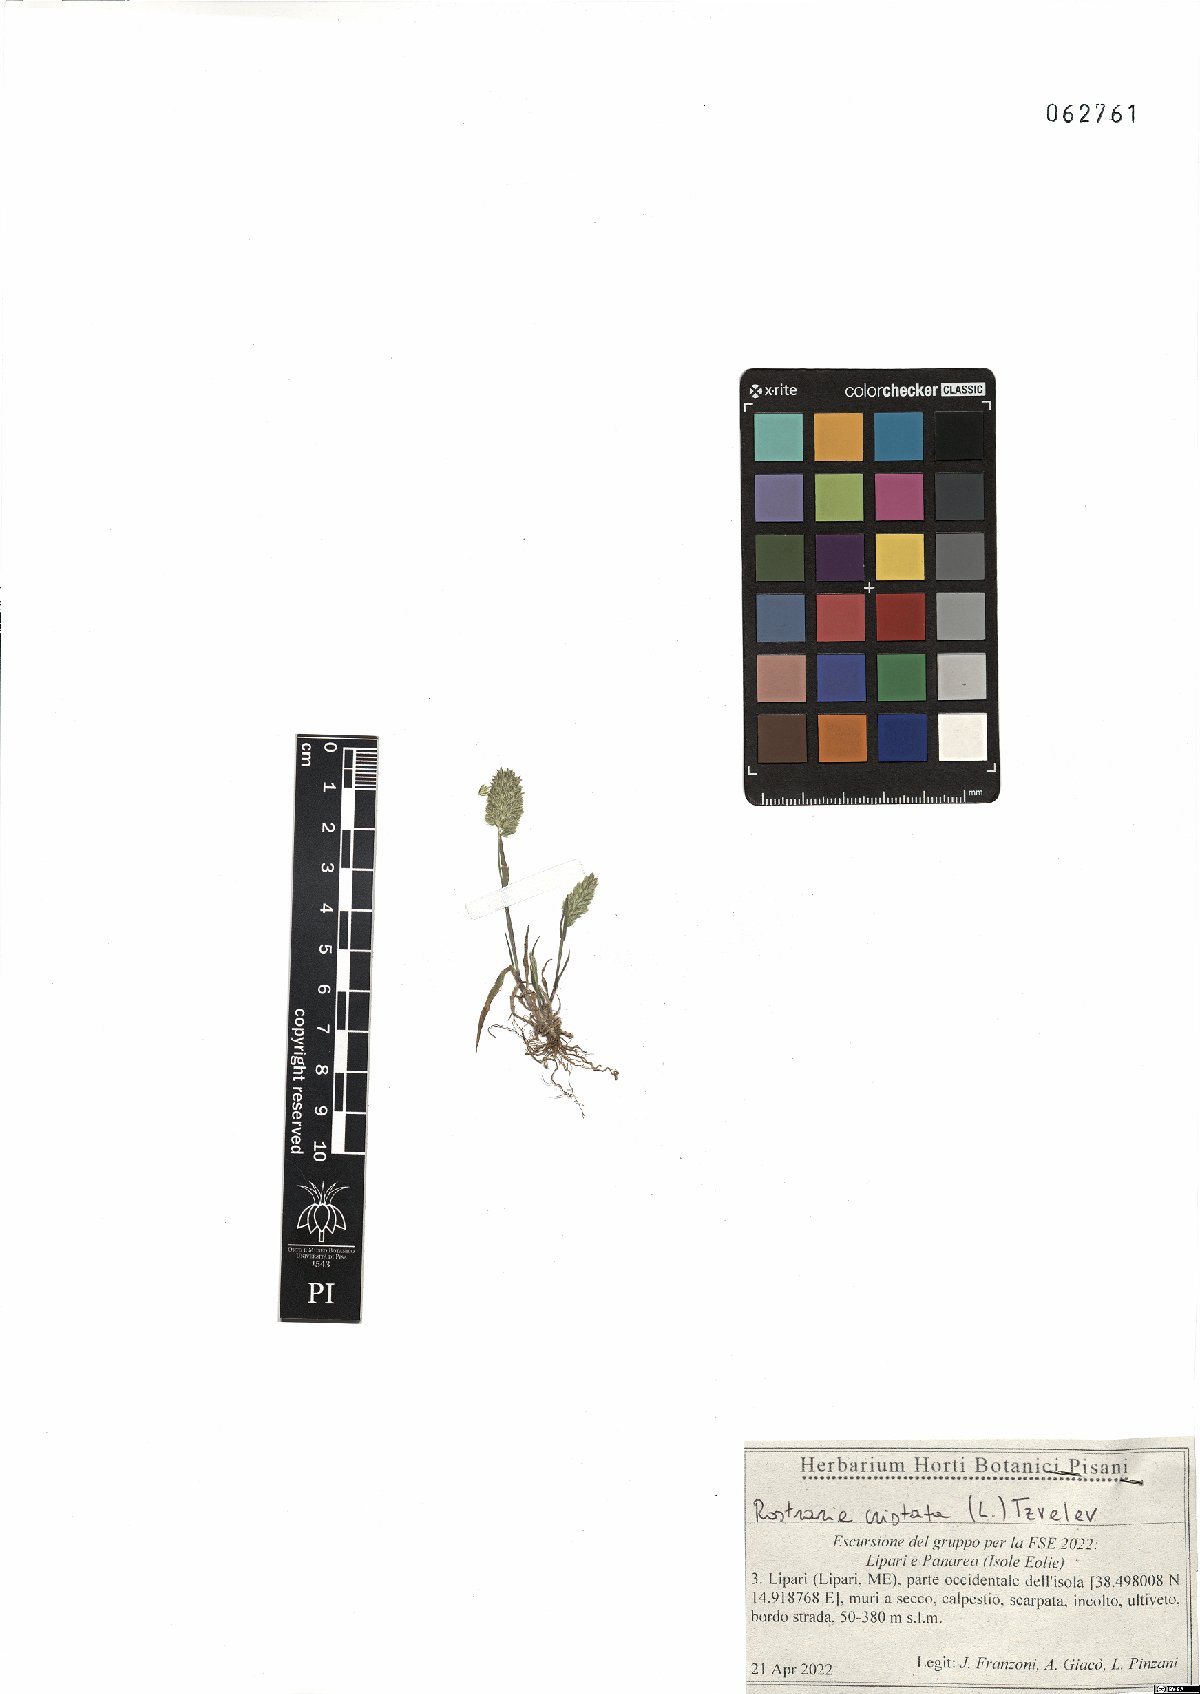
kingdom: Plantae
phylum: Tracheophyta
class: Liliopsida
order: Poales
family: Poaceae
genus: Rostraria
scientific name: Rostraria cristata
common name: Mediterranean hair-grass
